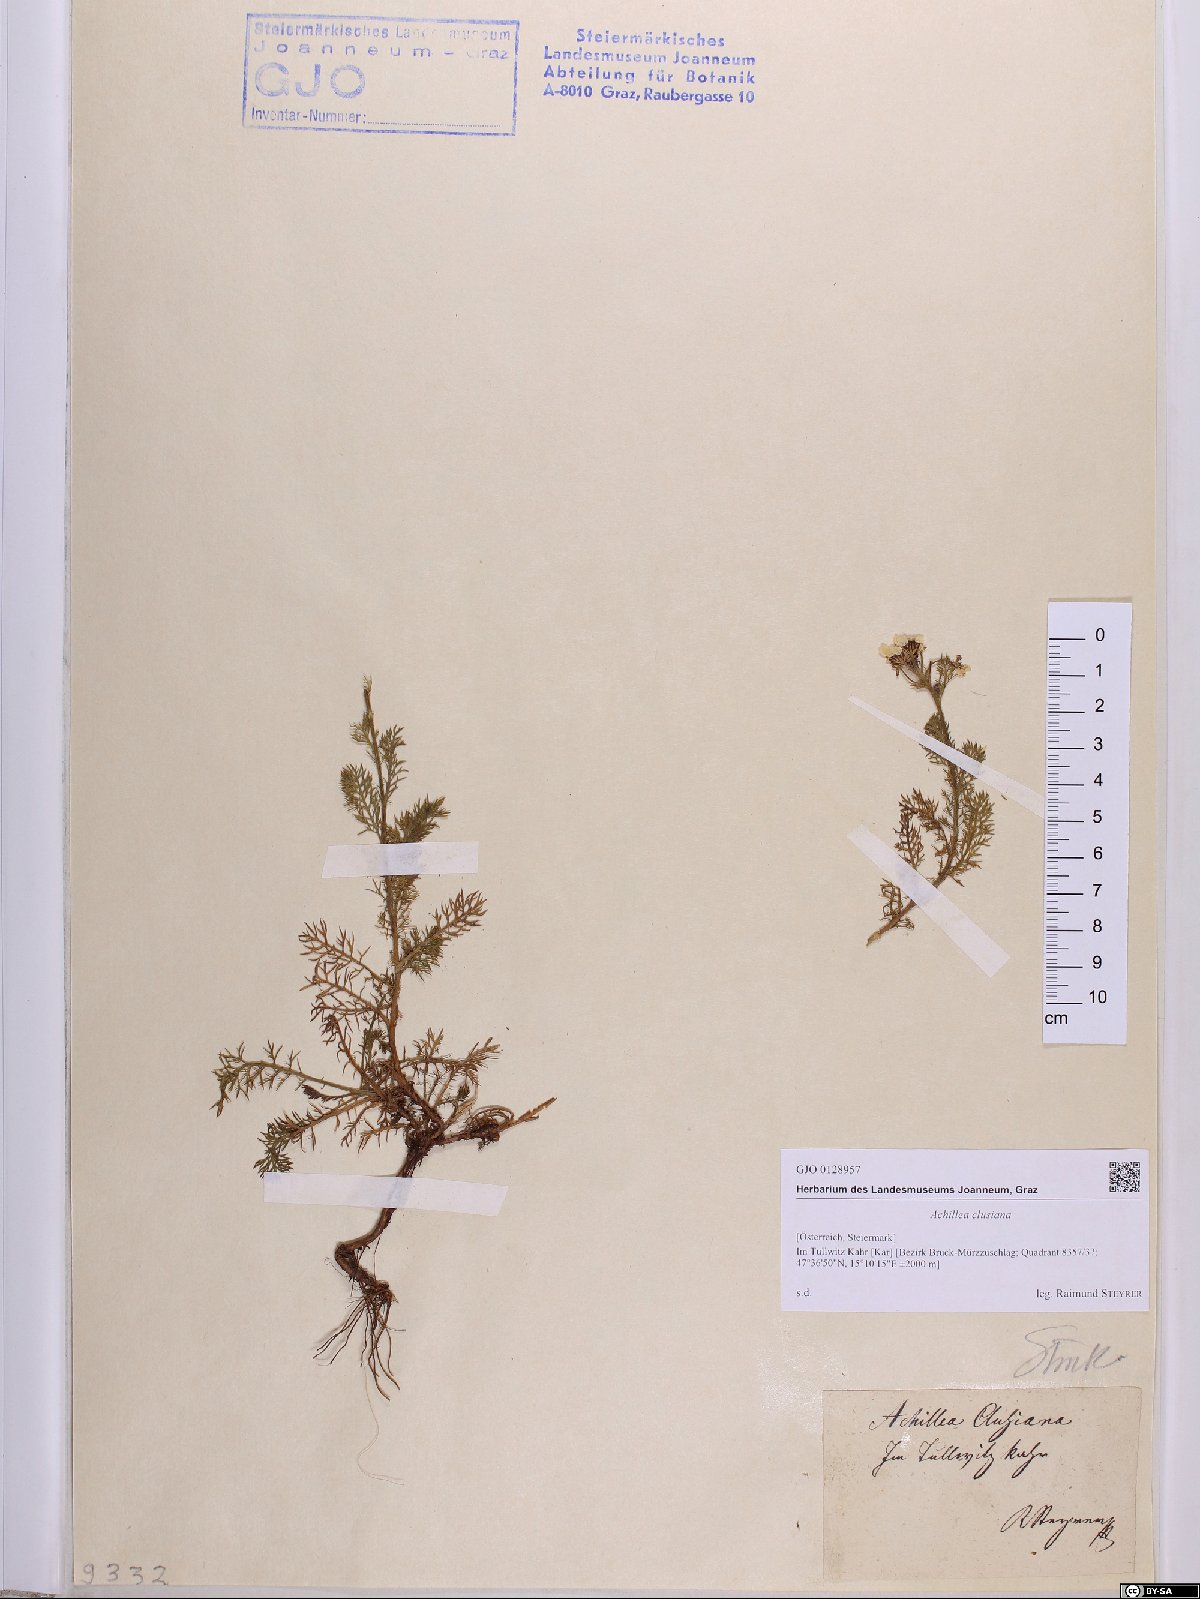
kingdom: Plantae
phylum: Tracheophyta
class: Magnoliopsida
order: Asterales
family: Asteraceae
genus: Achillea
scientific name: Achillea clusiana
